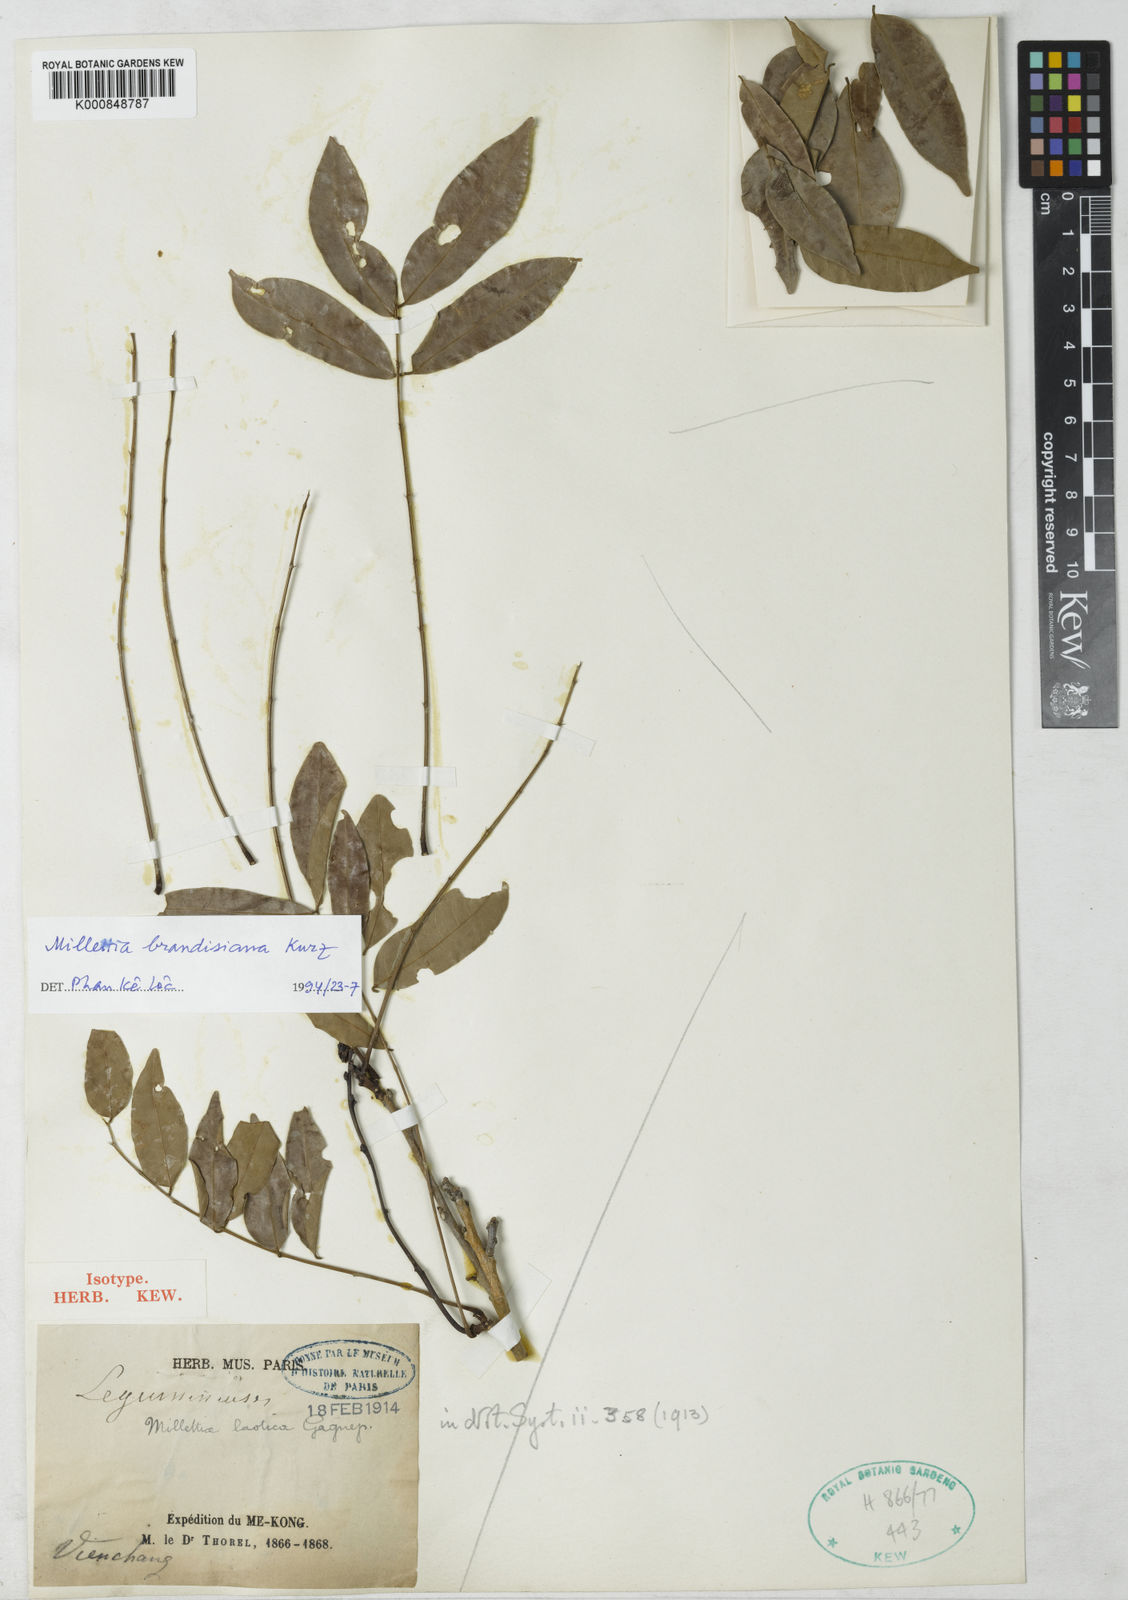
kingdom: Plantae
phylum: Tracheophyta
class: Magnoliopsida
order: Fabales
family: Fabaceae
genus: Millettia
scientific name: Millettia brandisiana
